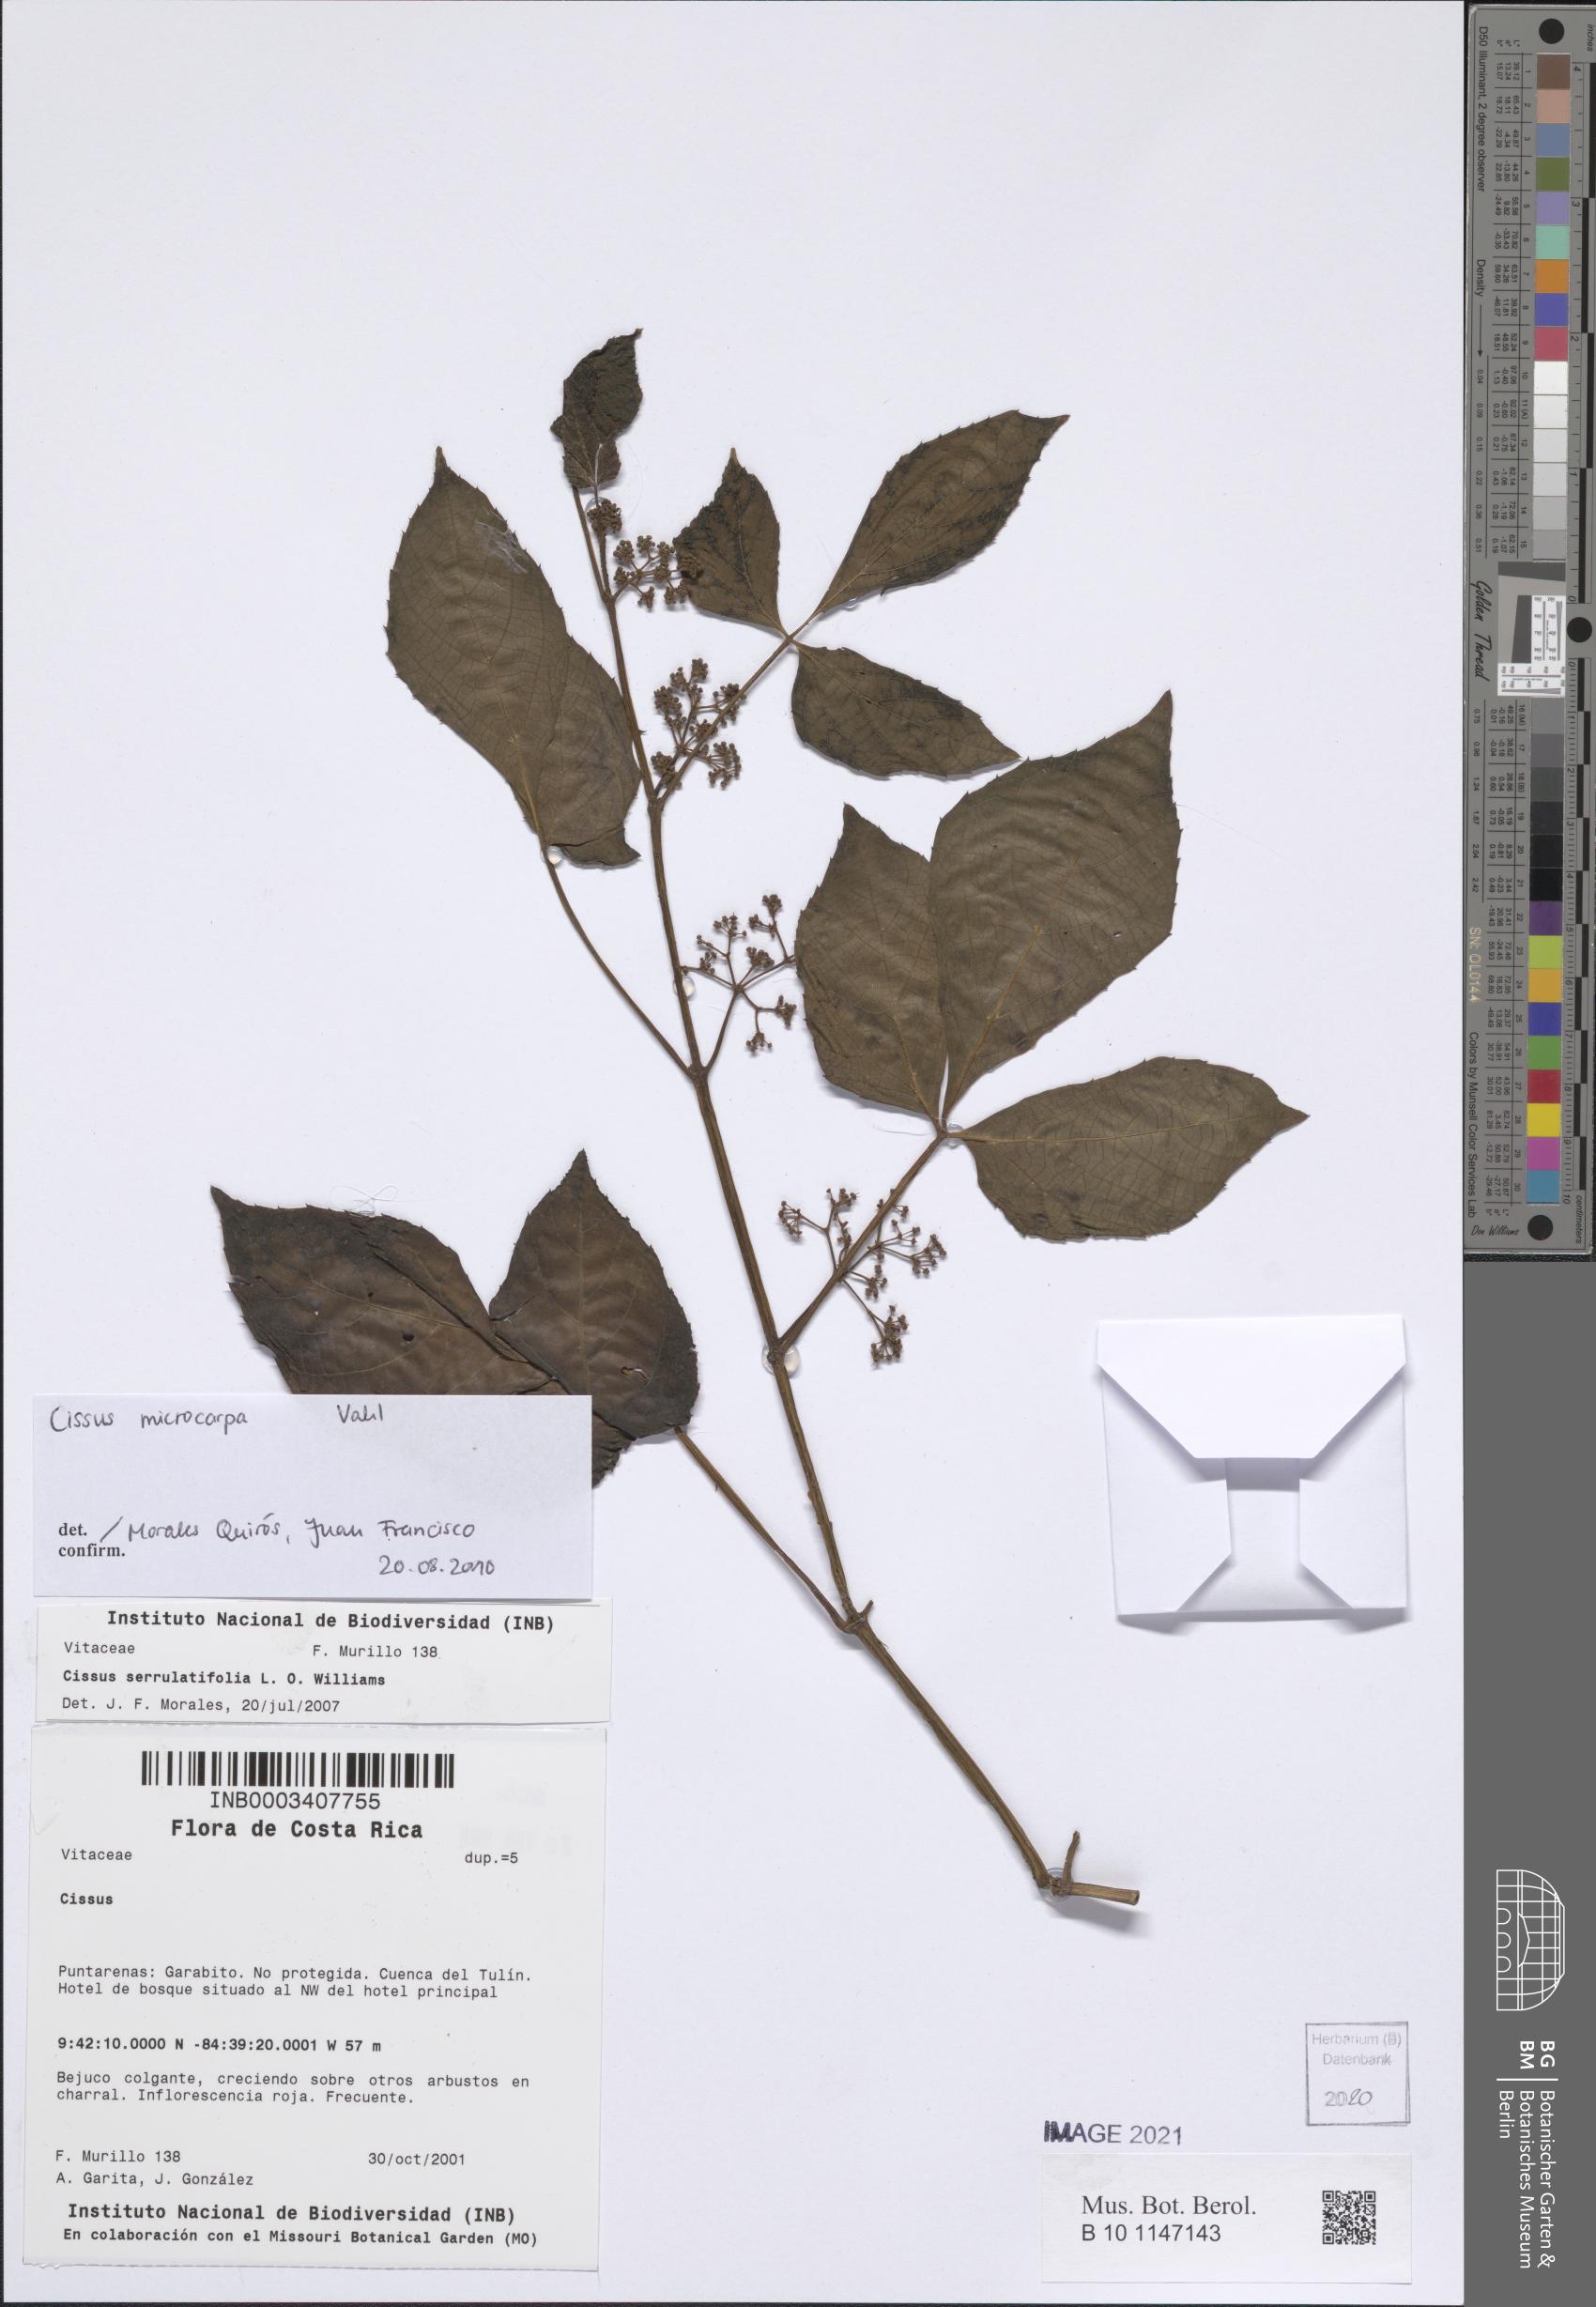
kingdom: Plantae
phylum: Tracheophyta
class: Magnoliopsida
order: Vitales
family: Vitaceae
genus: Cissus
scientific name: Cissus microcarpa
